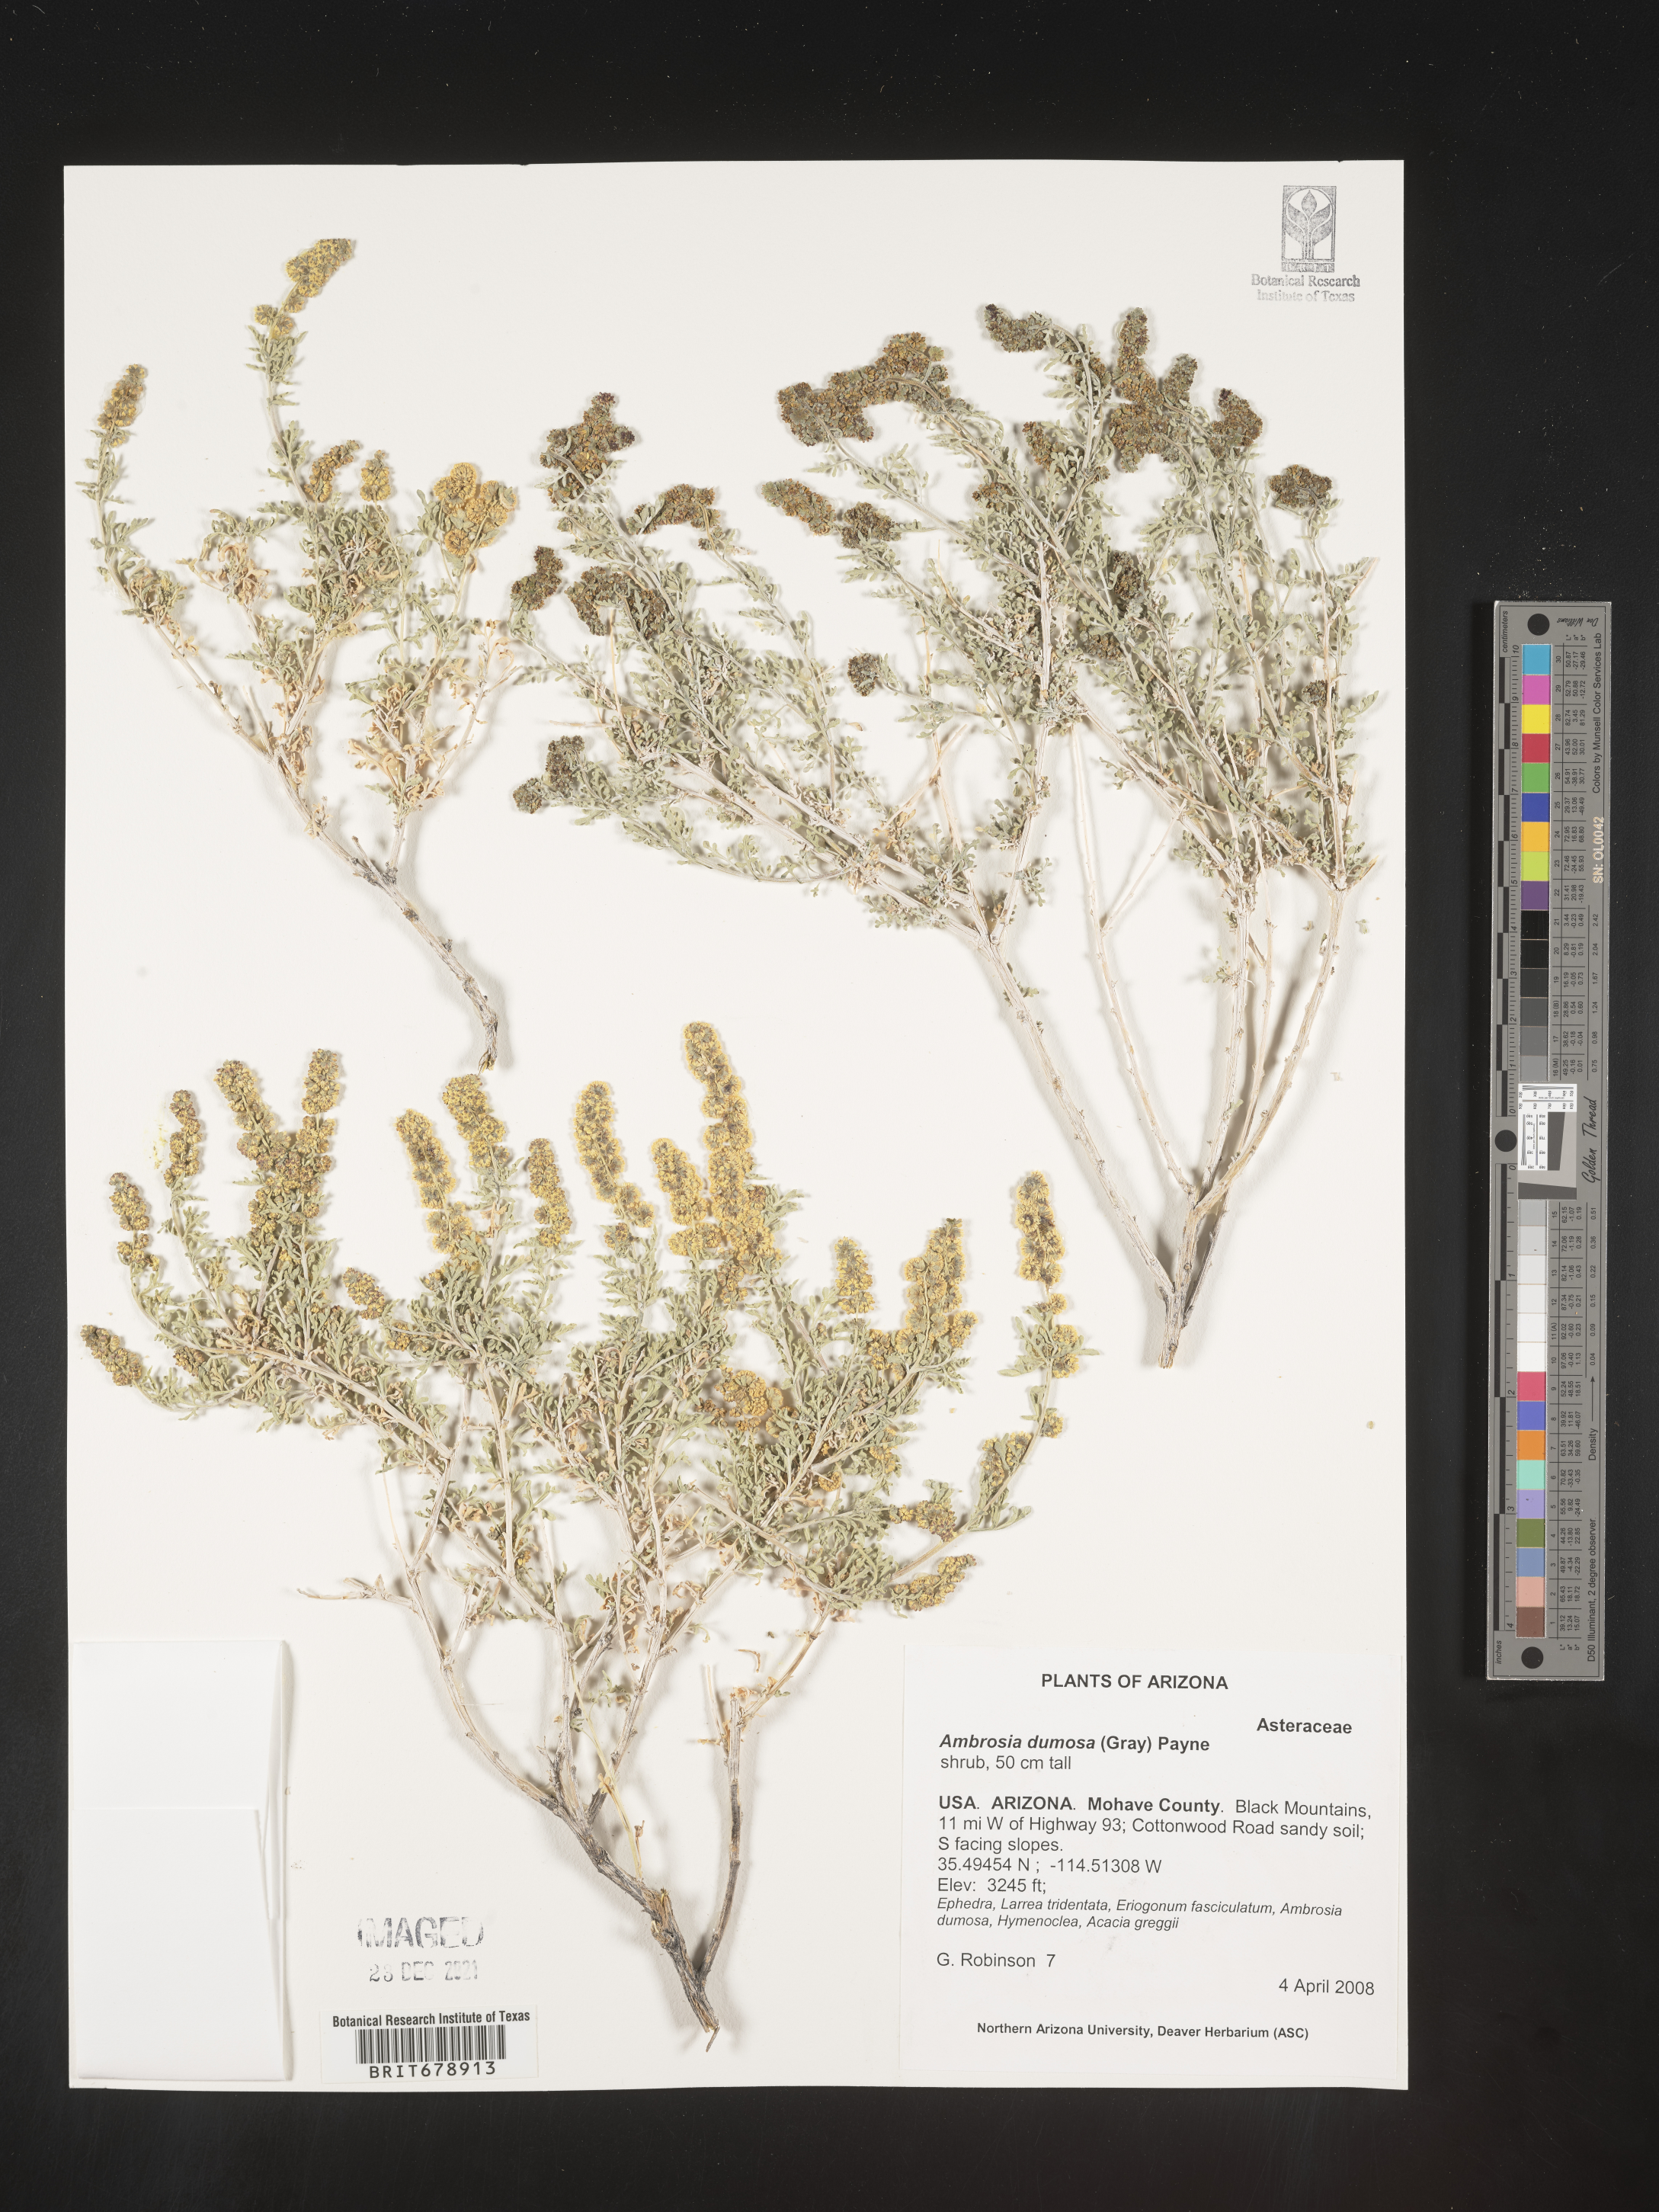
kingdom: Plantae
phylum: Tracheophyta
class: Magnoliopsida
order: Asterales
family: Asteraceae
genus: Ambrosia
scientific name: Ambrosia dumosa
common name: Bur-sage
